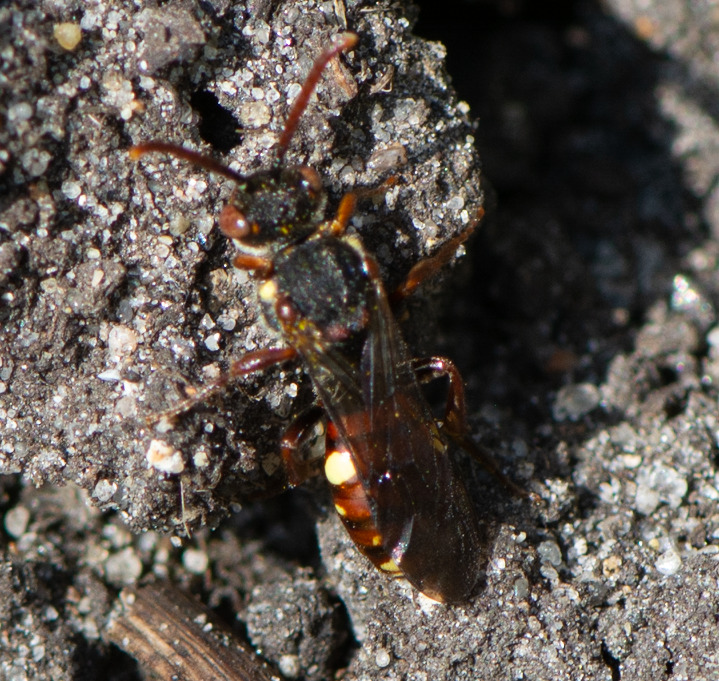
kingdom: Animalia
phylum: Arthropoda
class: Insecta
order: Hymenoptera
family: Apidae
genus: Nomada
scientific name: Nomada ferruginata
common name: Forårshvepsebi
